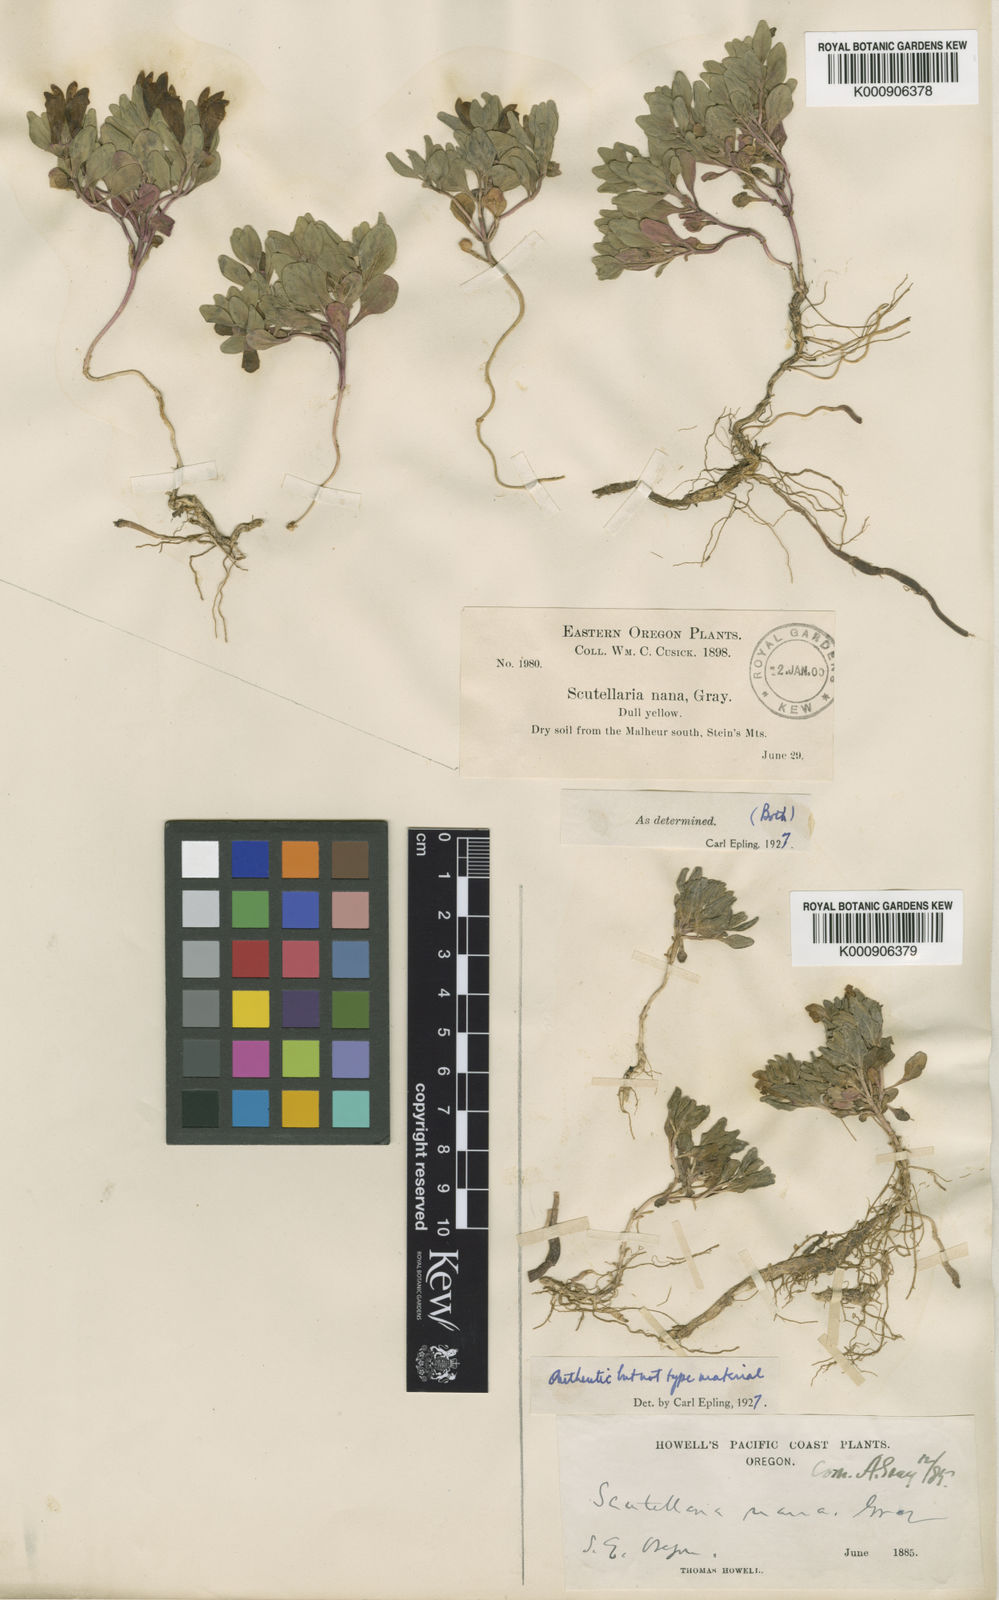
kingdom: Plantae
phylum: Tracheophyta
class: Magnoliopsida
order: Lamiales
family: Lamiaceae
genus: Scutellaria
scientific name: Scutellaria nana
